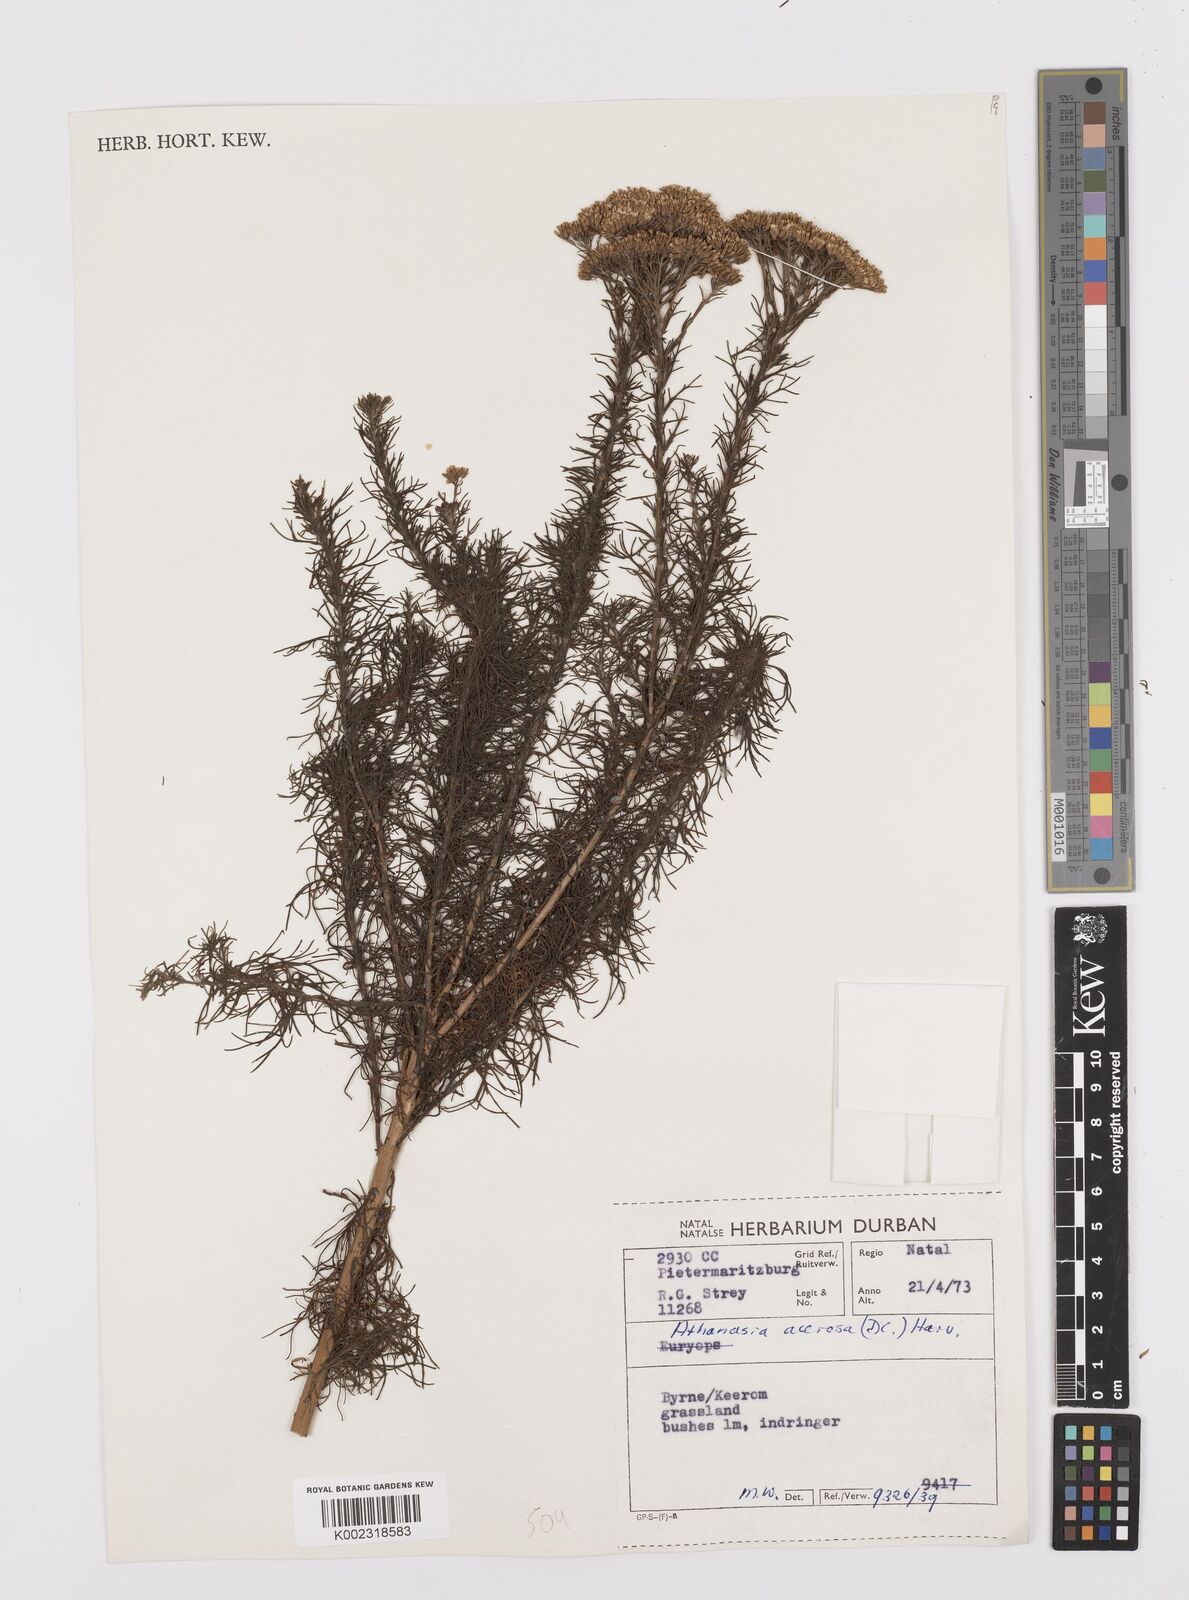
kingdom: Plantae
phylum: Tracheophyta
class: Magnoliopsida
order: Asterales
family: Asteraceae
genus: Phymaspermum
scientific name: Phymaspermum acerosum
